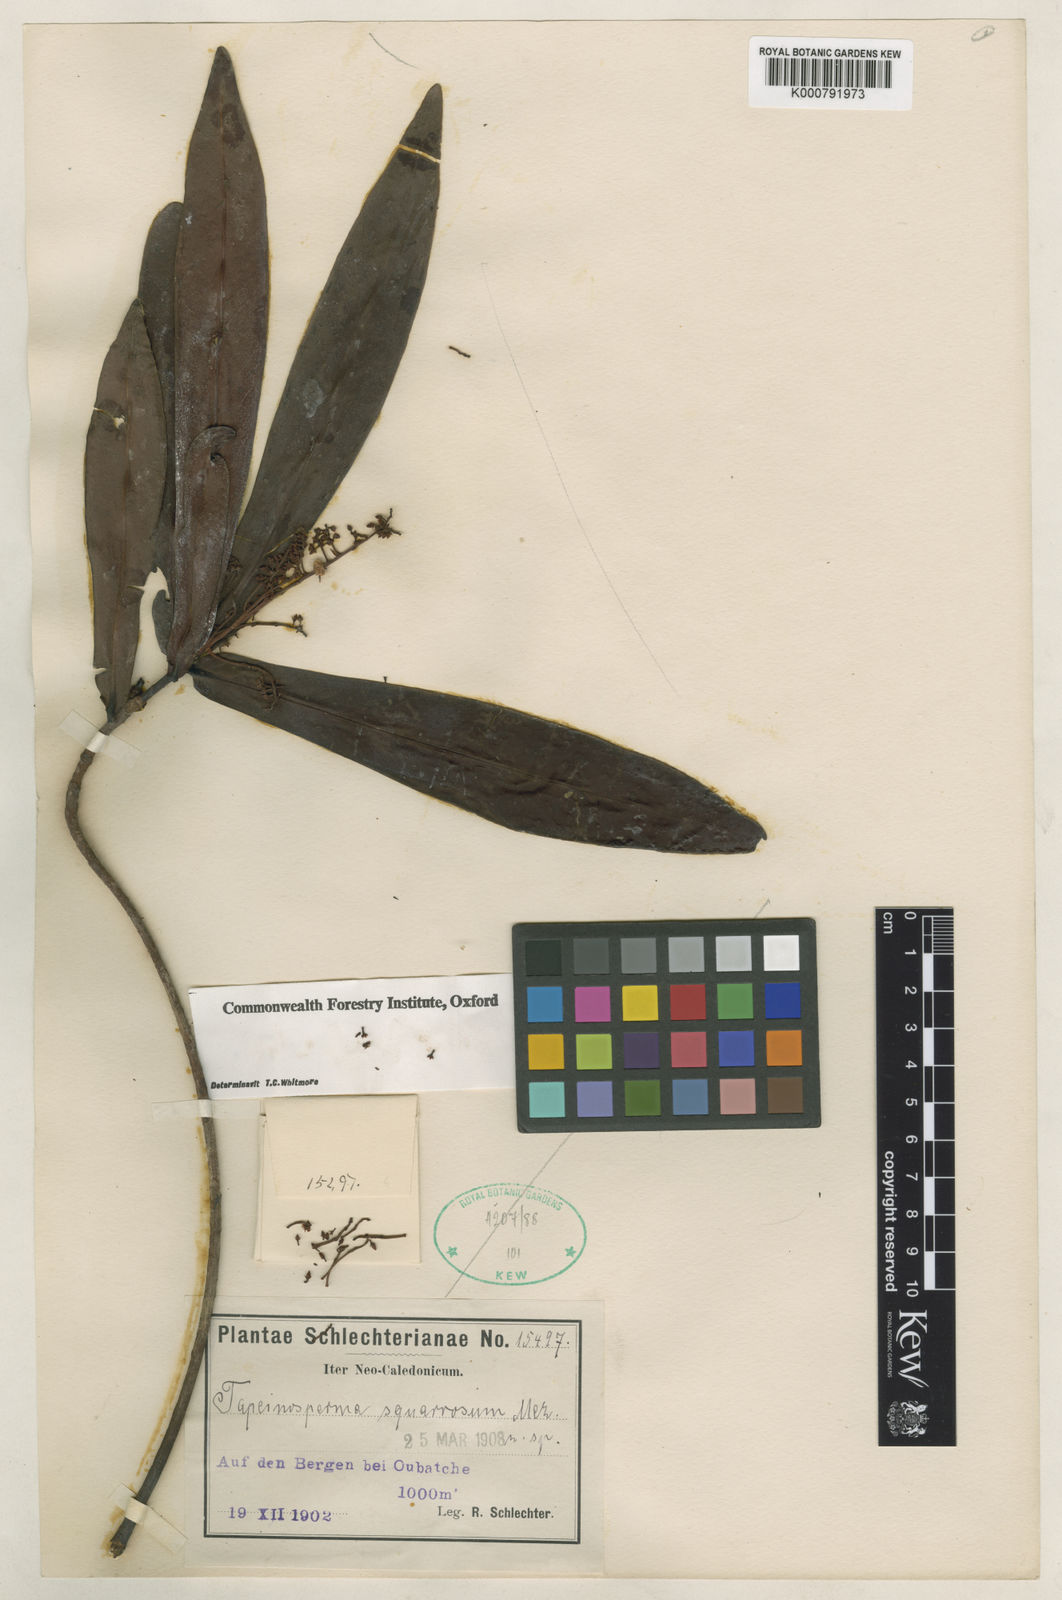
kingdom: Plantae
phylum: Tracheophyta
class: Magnoliopsida
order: Ericales
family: Primulaceae
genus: Tapeinosperma
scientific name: Tapeinosperma vestitum
